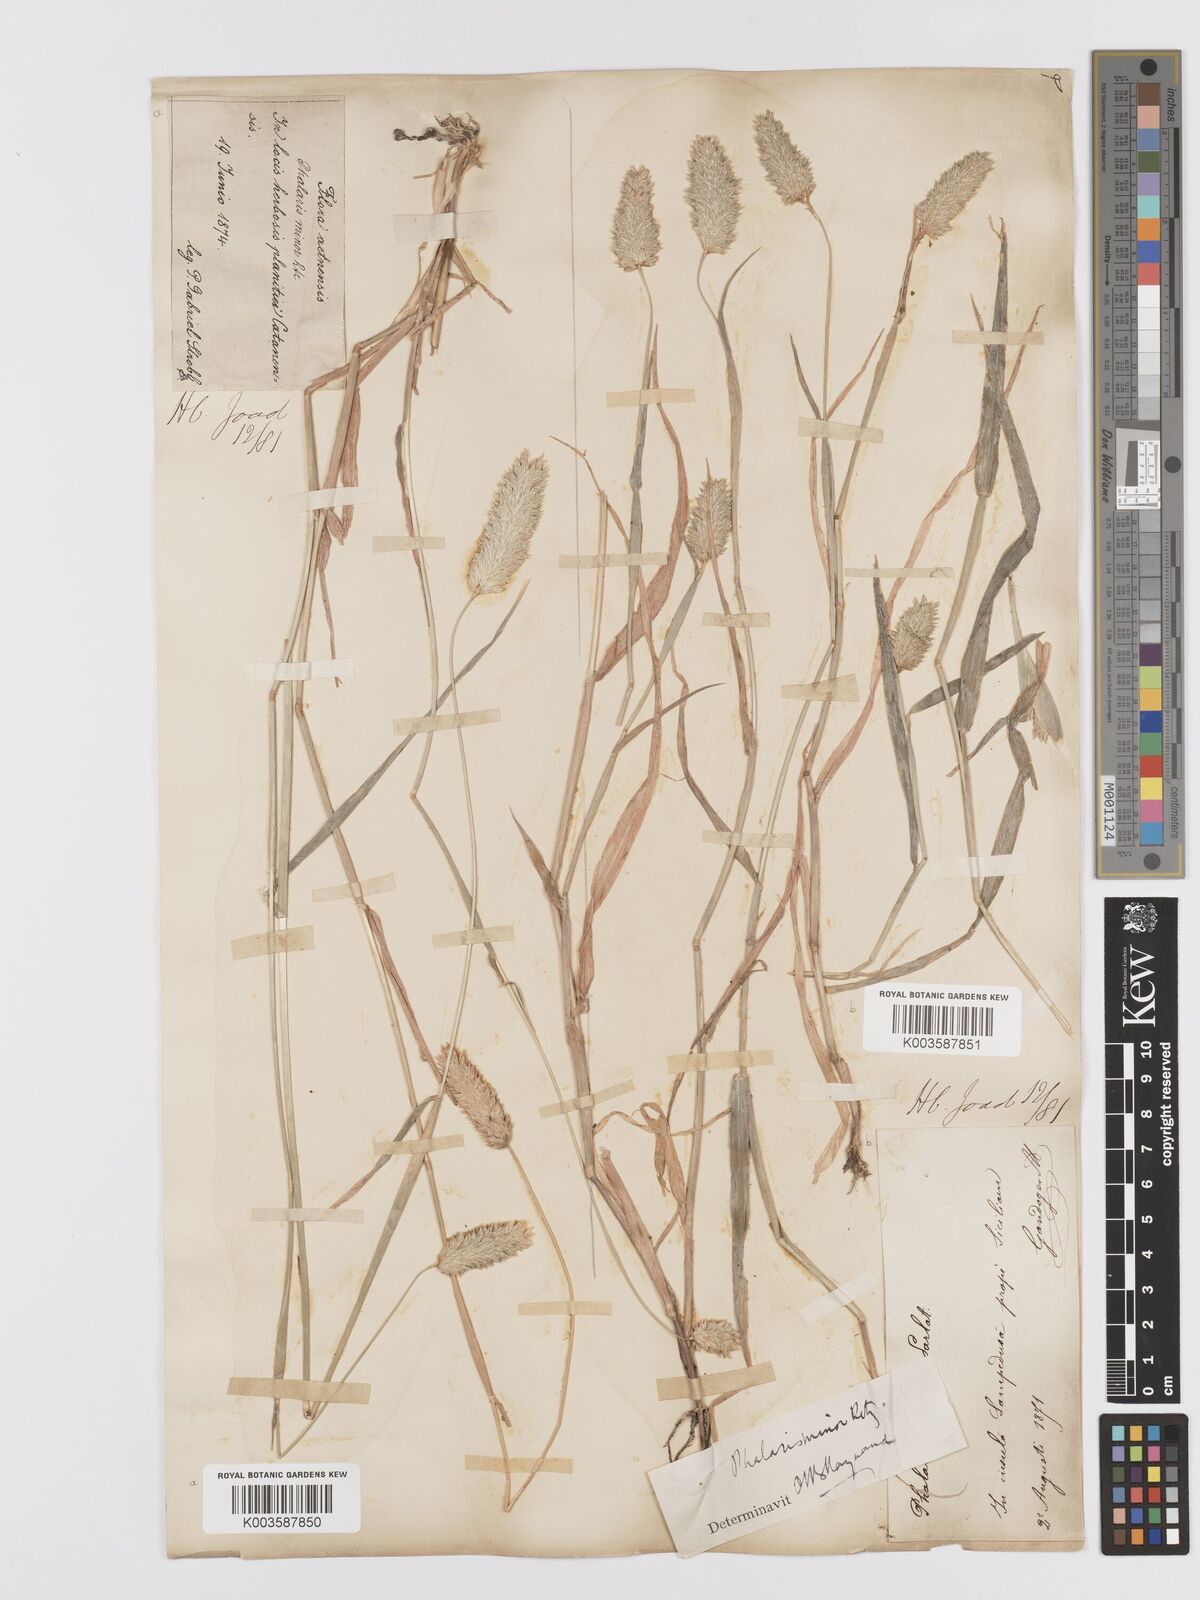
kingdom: Plantae
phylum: Tracheophyta
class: Liliopsida
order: Poales
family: Poaceae
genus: Phalaris
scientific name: Phalaris minor
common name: Littleseed canarygrass
